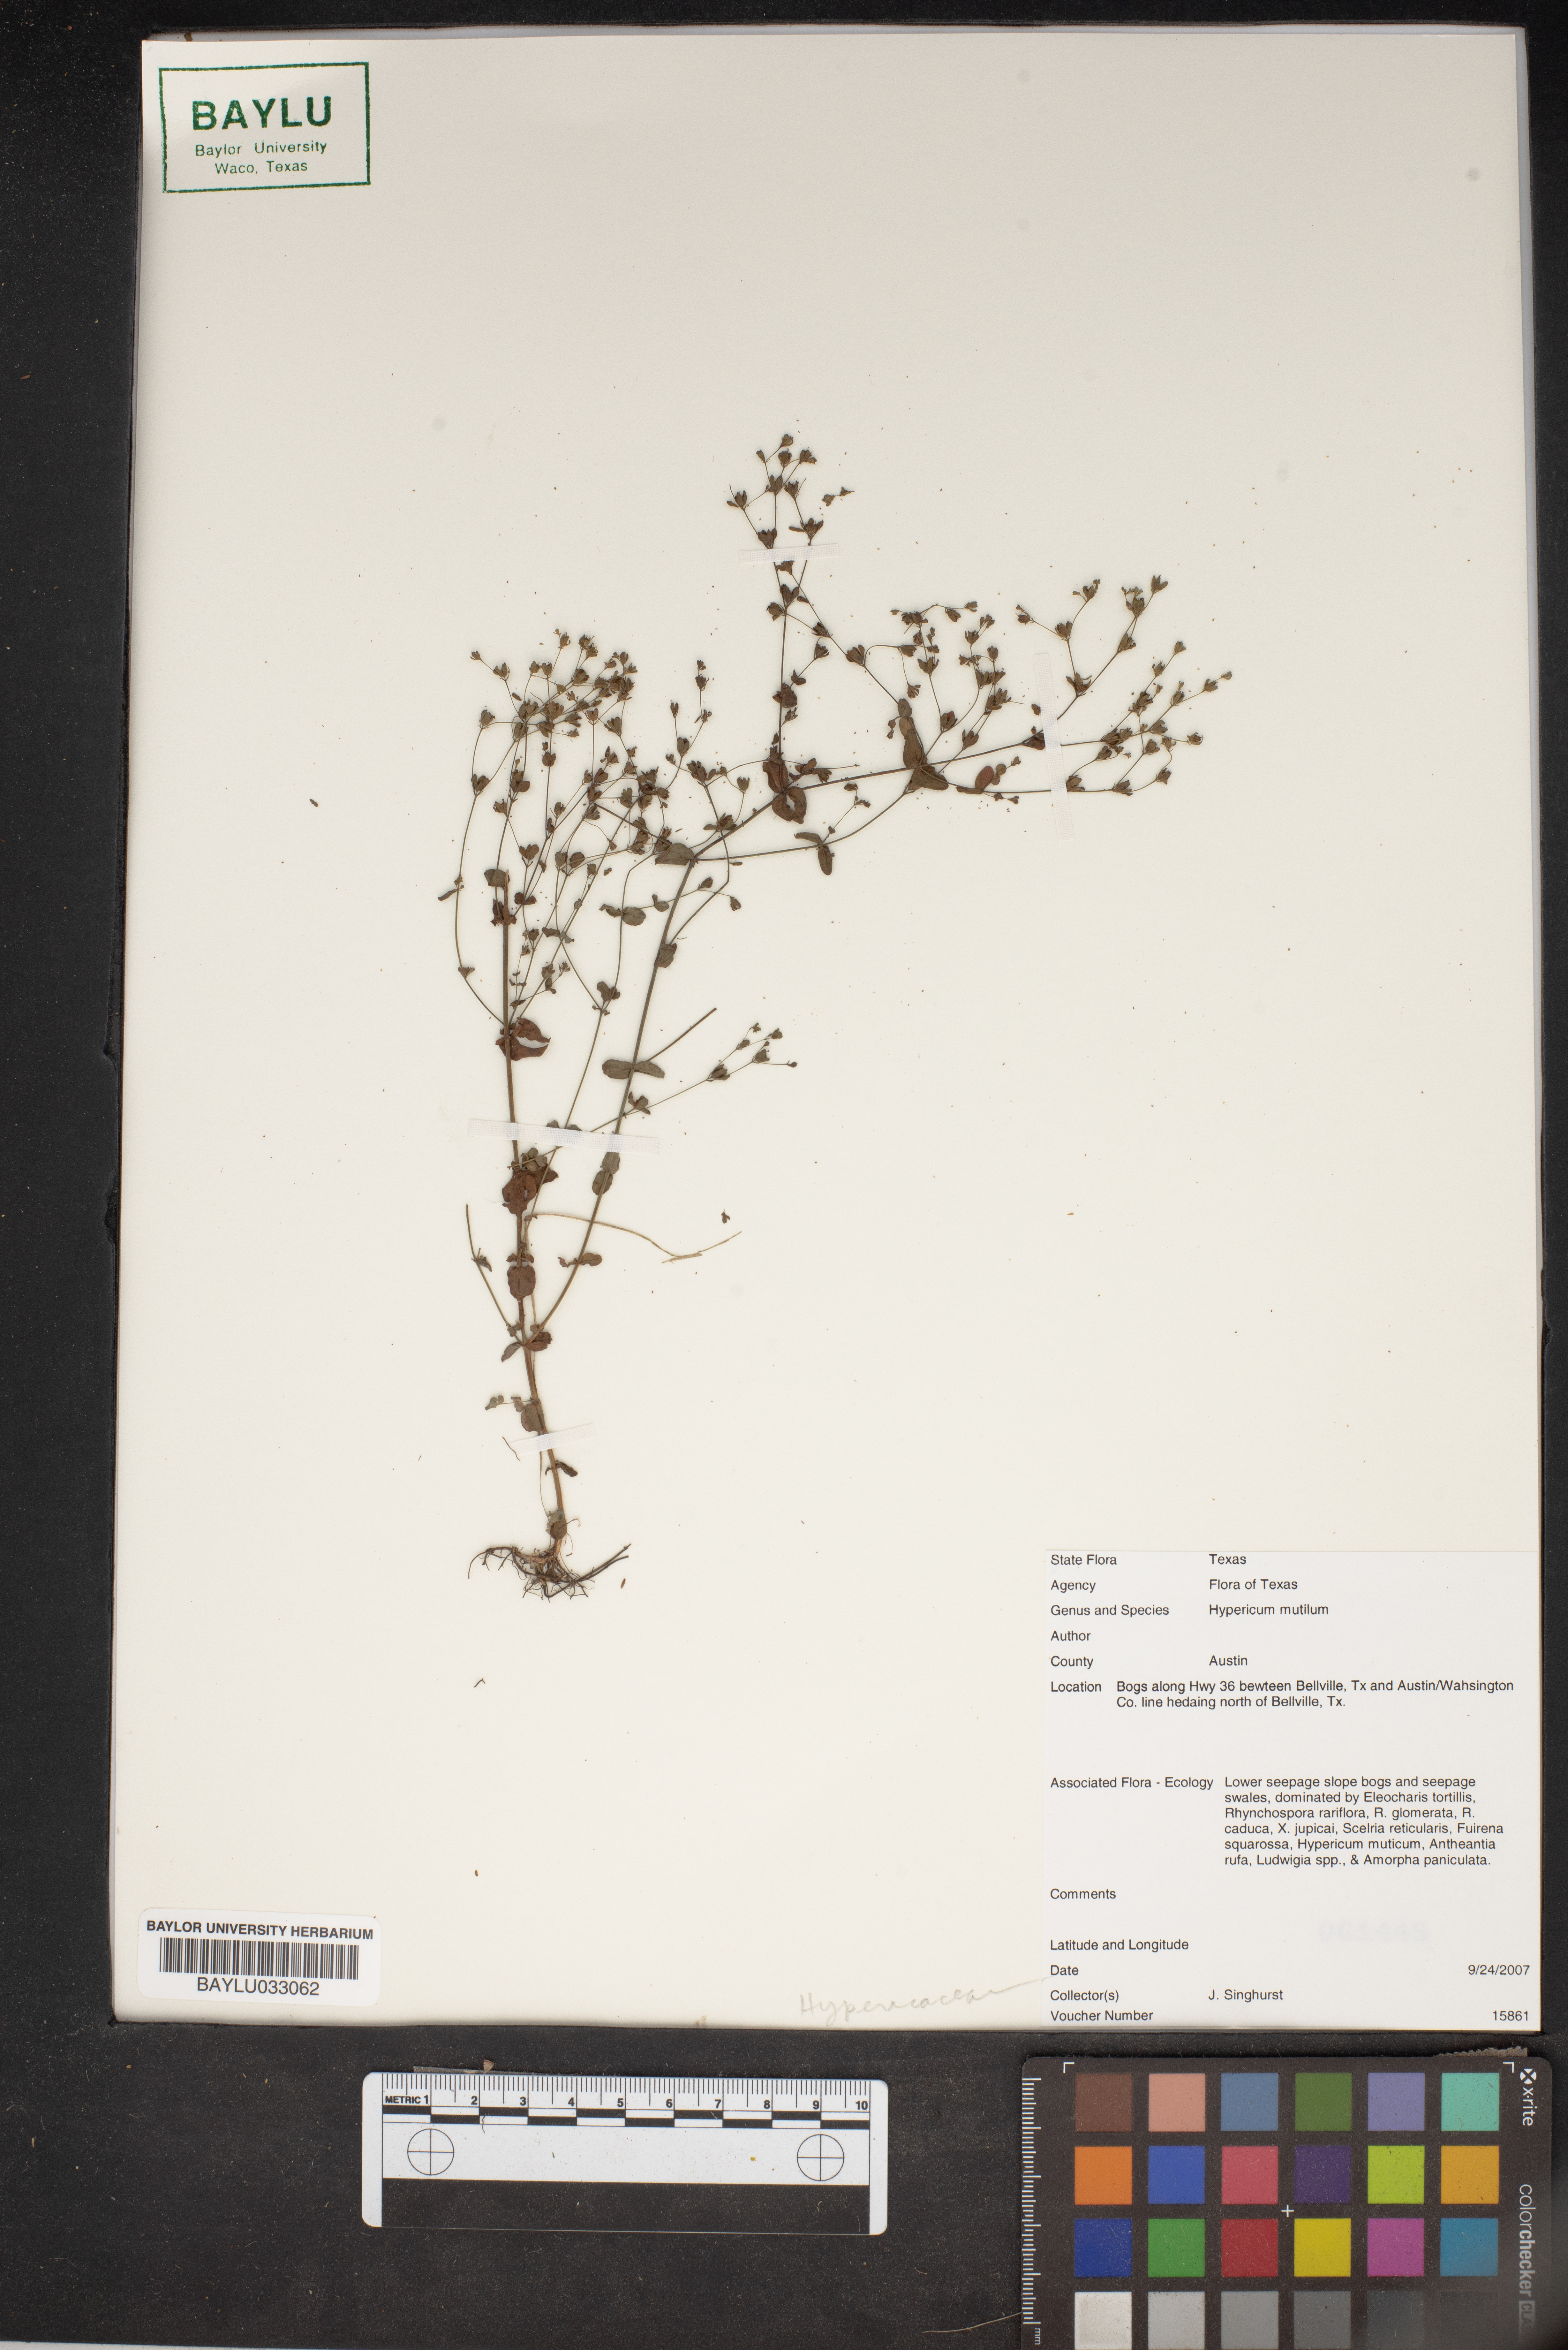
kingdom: Plantae
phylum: Tracheophyta
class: Magnoliopsida
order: Malpighiales
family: Hypericaceae
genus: Hypericum
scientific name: Hypericum mutilum
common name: Dwarf st. john's-wort
